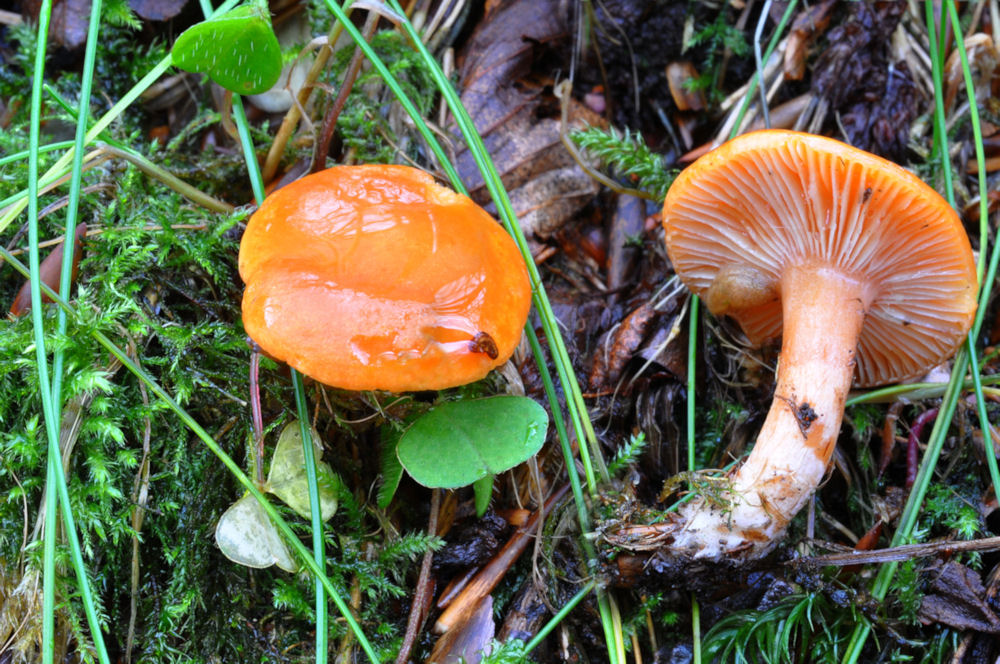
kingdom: Fungi
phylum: Basidiomycota
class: Agaricomycetes
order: Russulales
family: Russulaceae
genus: Lactarius
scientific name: Lactarius aurantiacus
